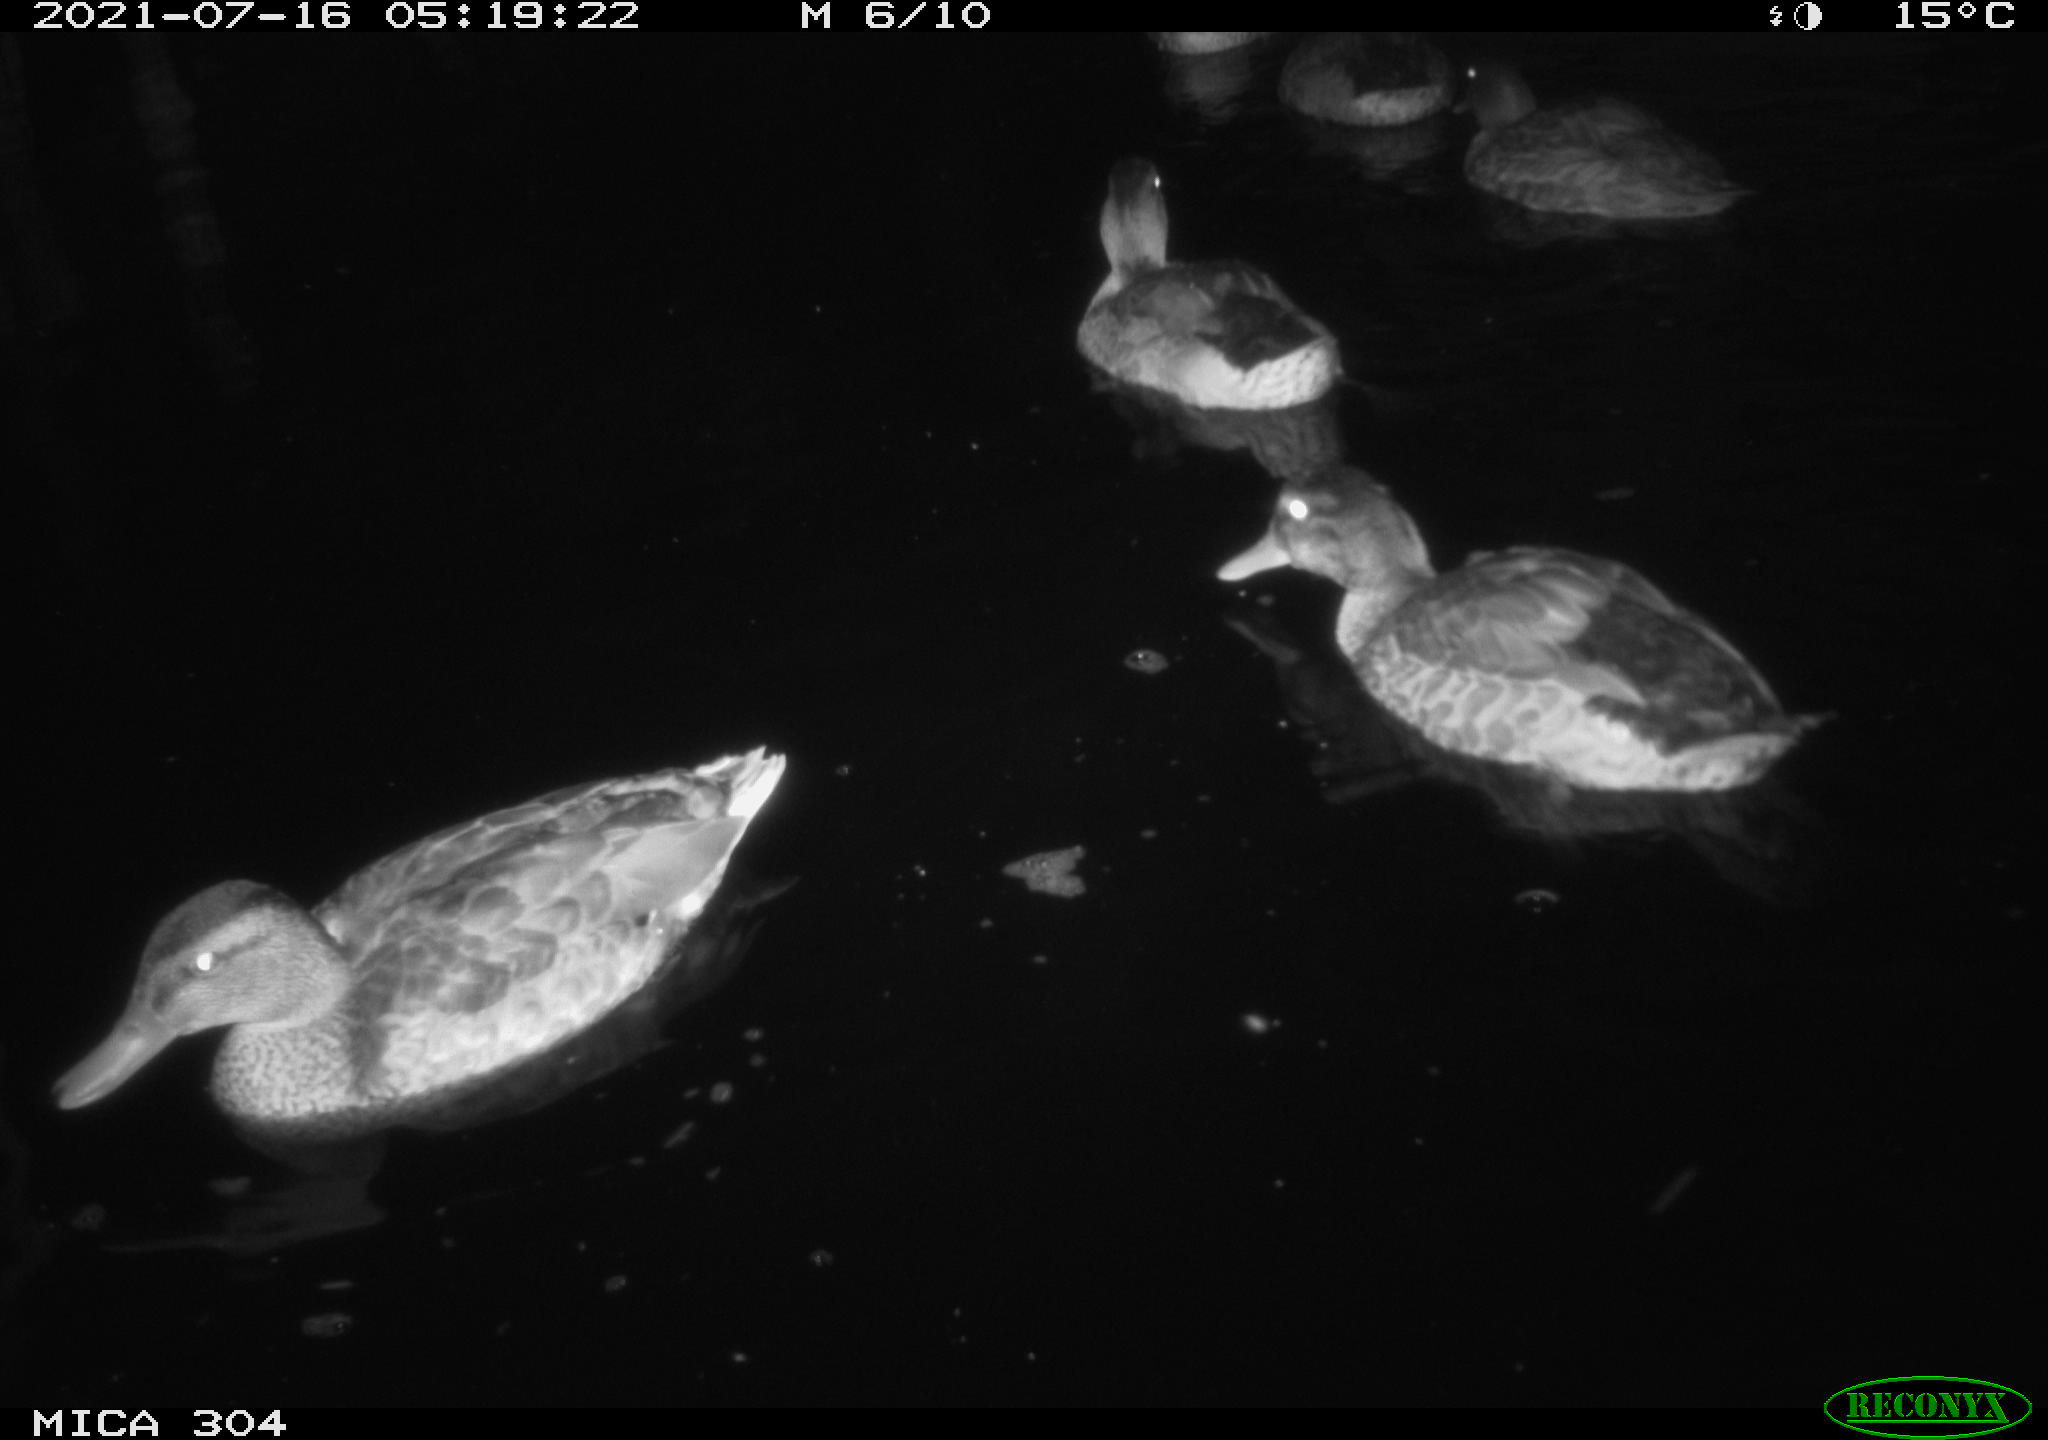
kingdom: Animalia
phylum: Chordata
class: Aves
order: Anseriformes
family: Anatidae
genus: Mareca
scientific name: Mareca strepera
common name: Gadwall
